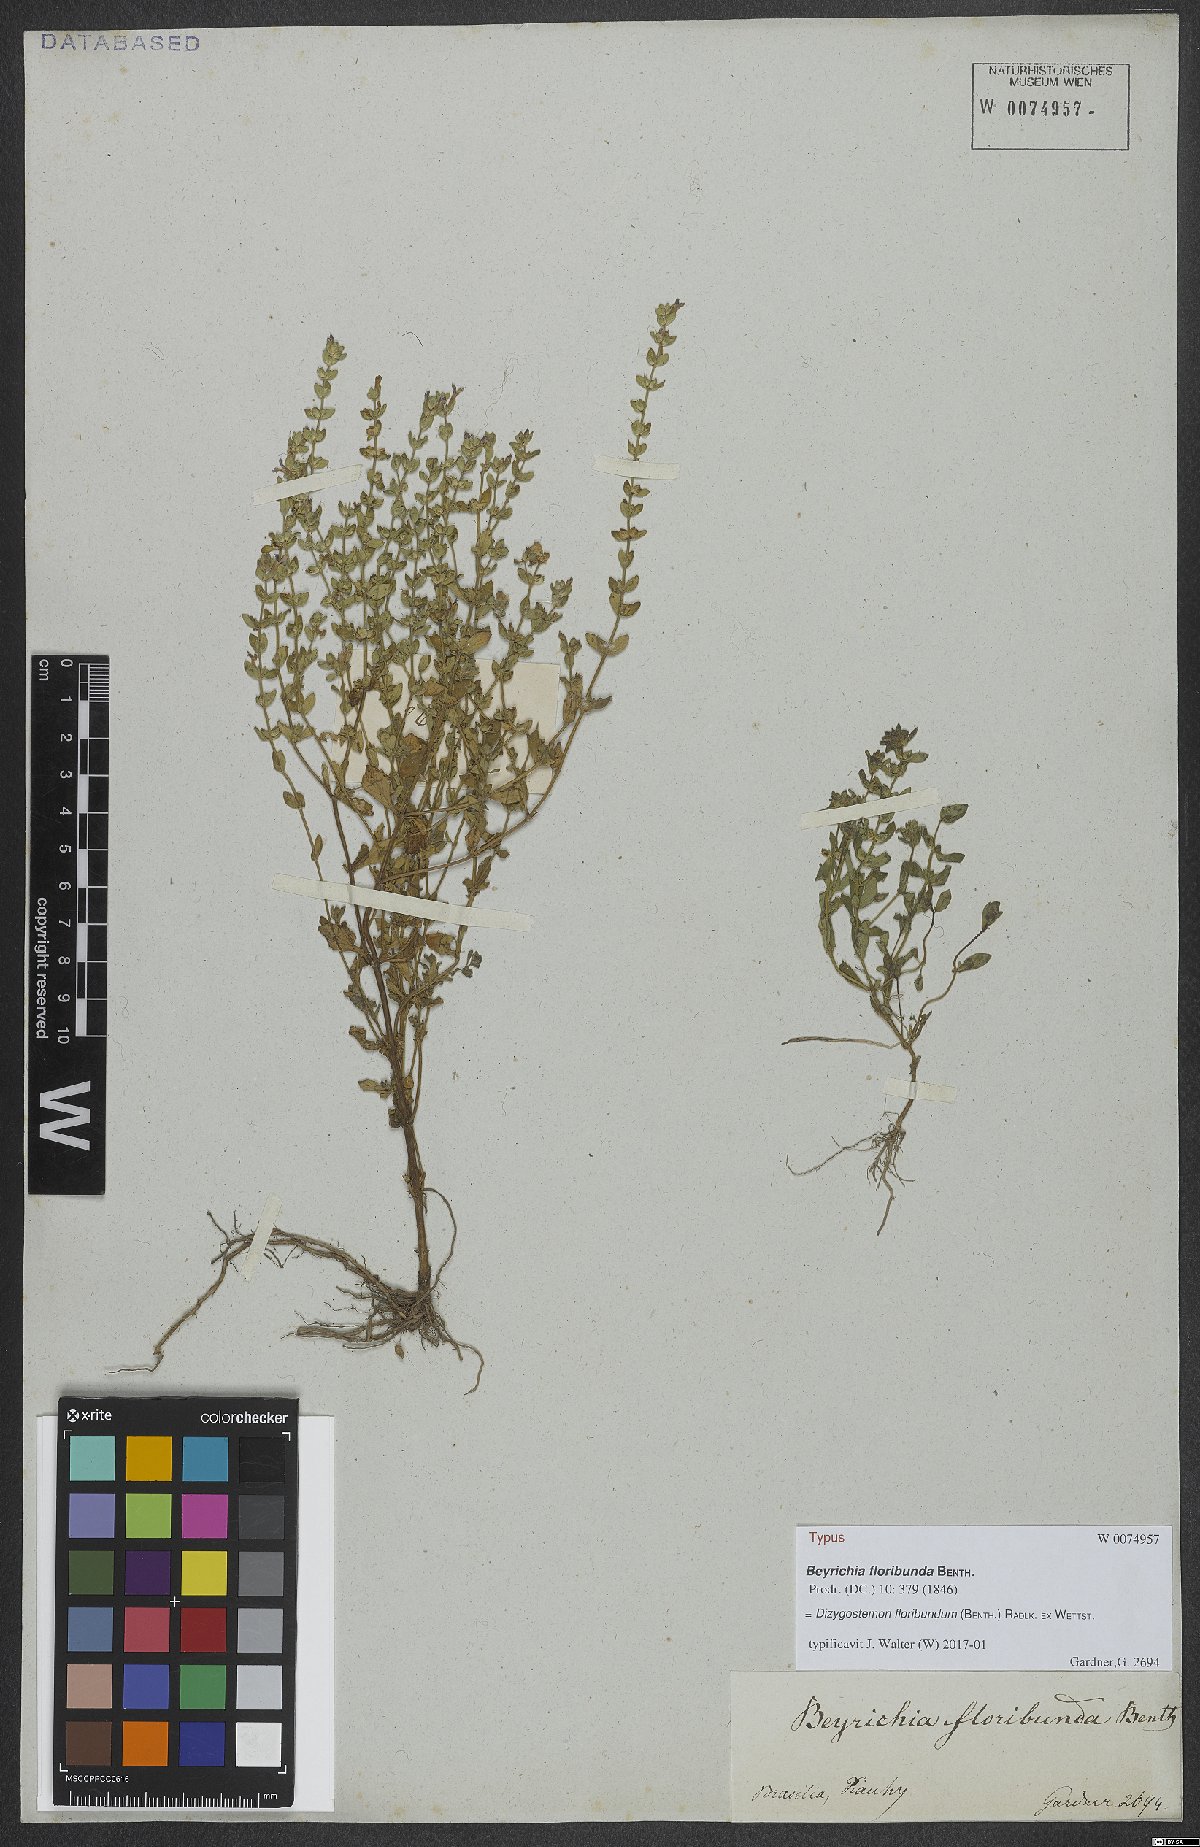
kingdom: Plantae
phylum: Tracheophyta
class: Magnoliopsida
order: Lamiales
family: Plantaginaceae
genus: Dizygostemon
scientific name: Dizygostemon floribundum
